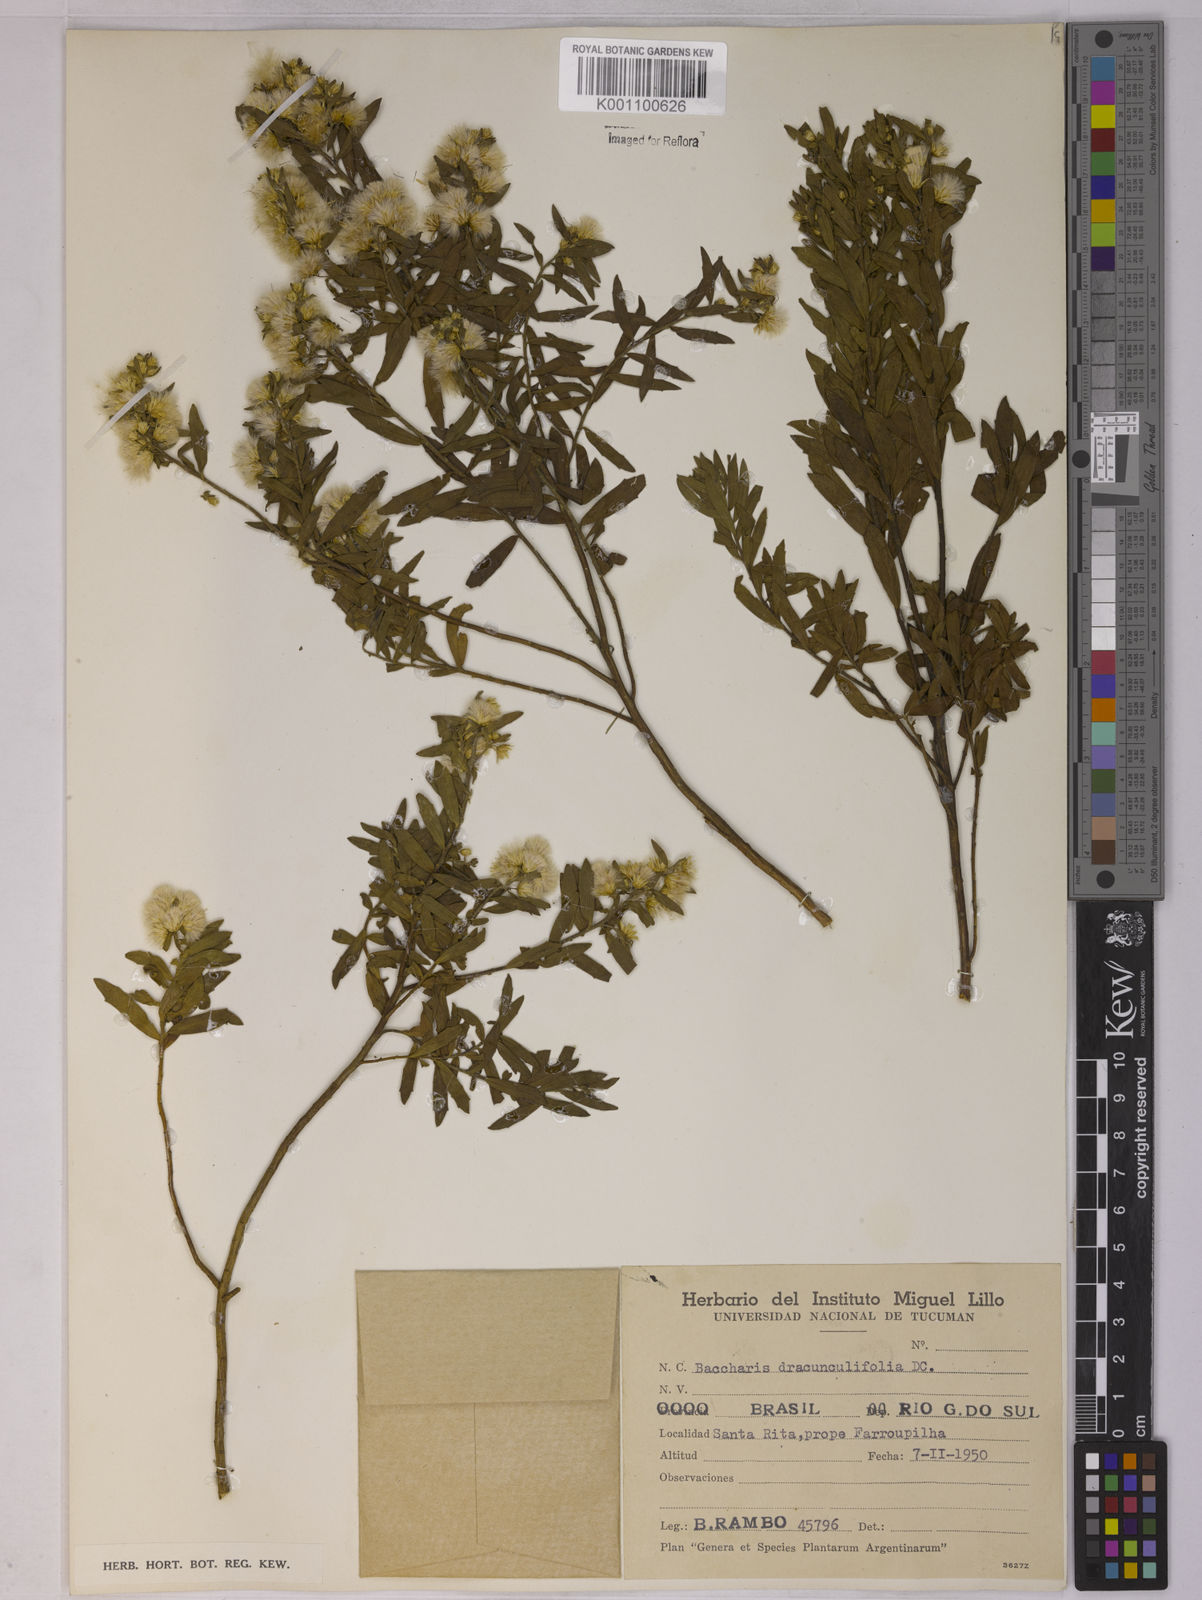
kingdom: Plantae
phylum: Tracheophyta
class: Magnoliopsida
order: Asterales
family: Asteraceae
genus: Baccharis
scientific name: Baccharis dracunculifolia
